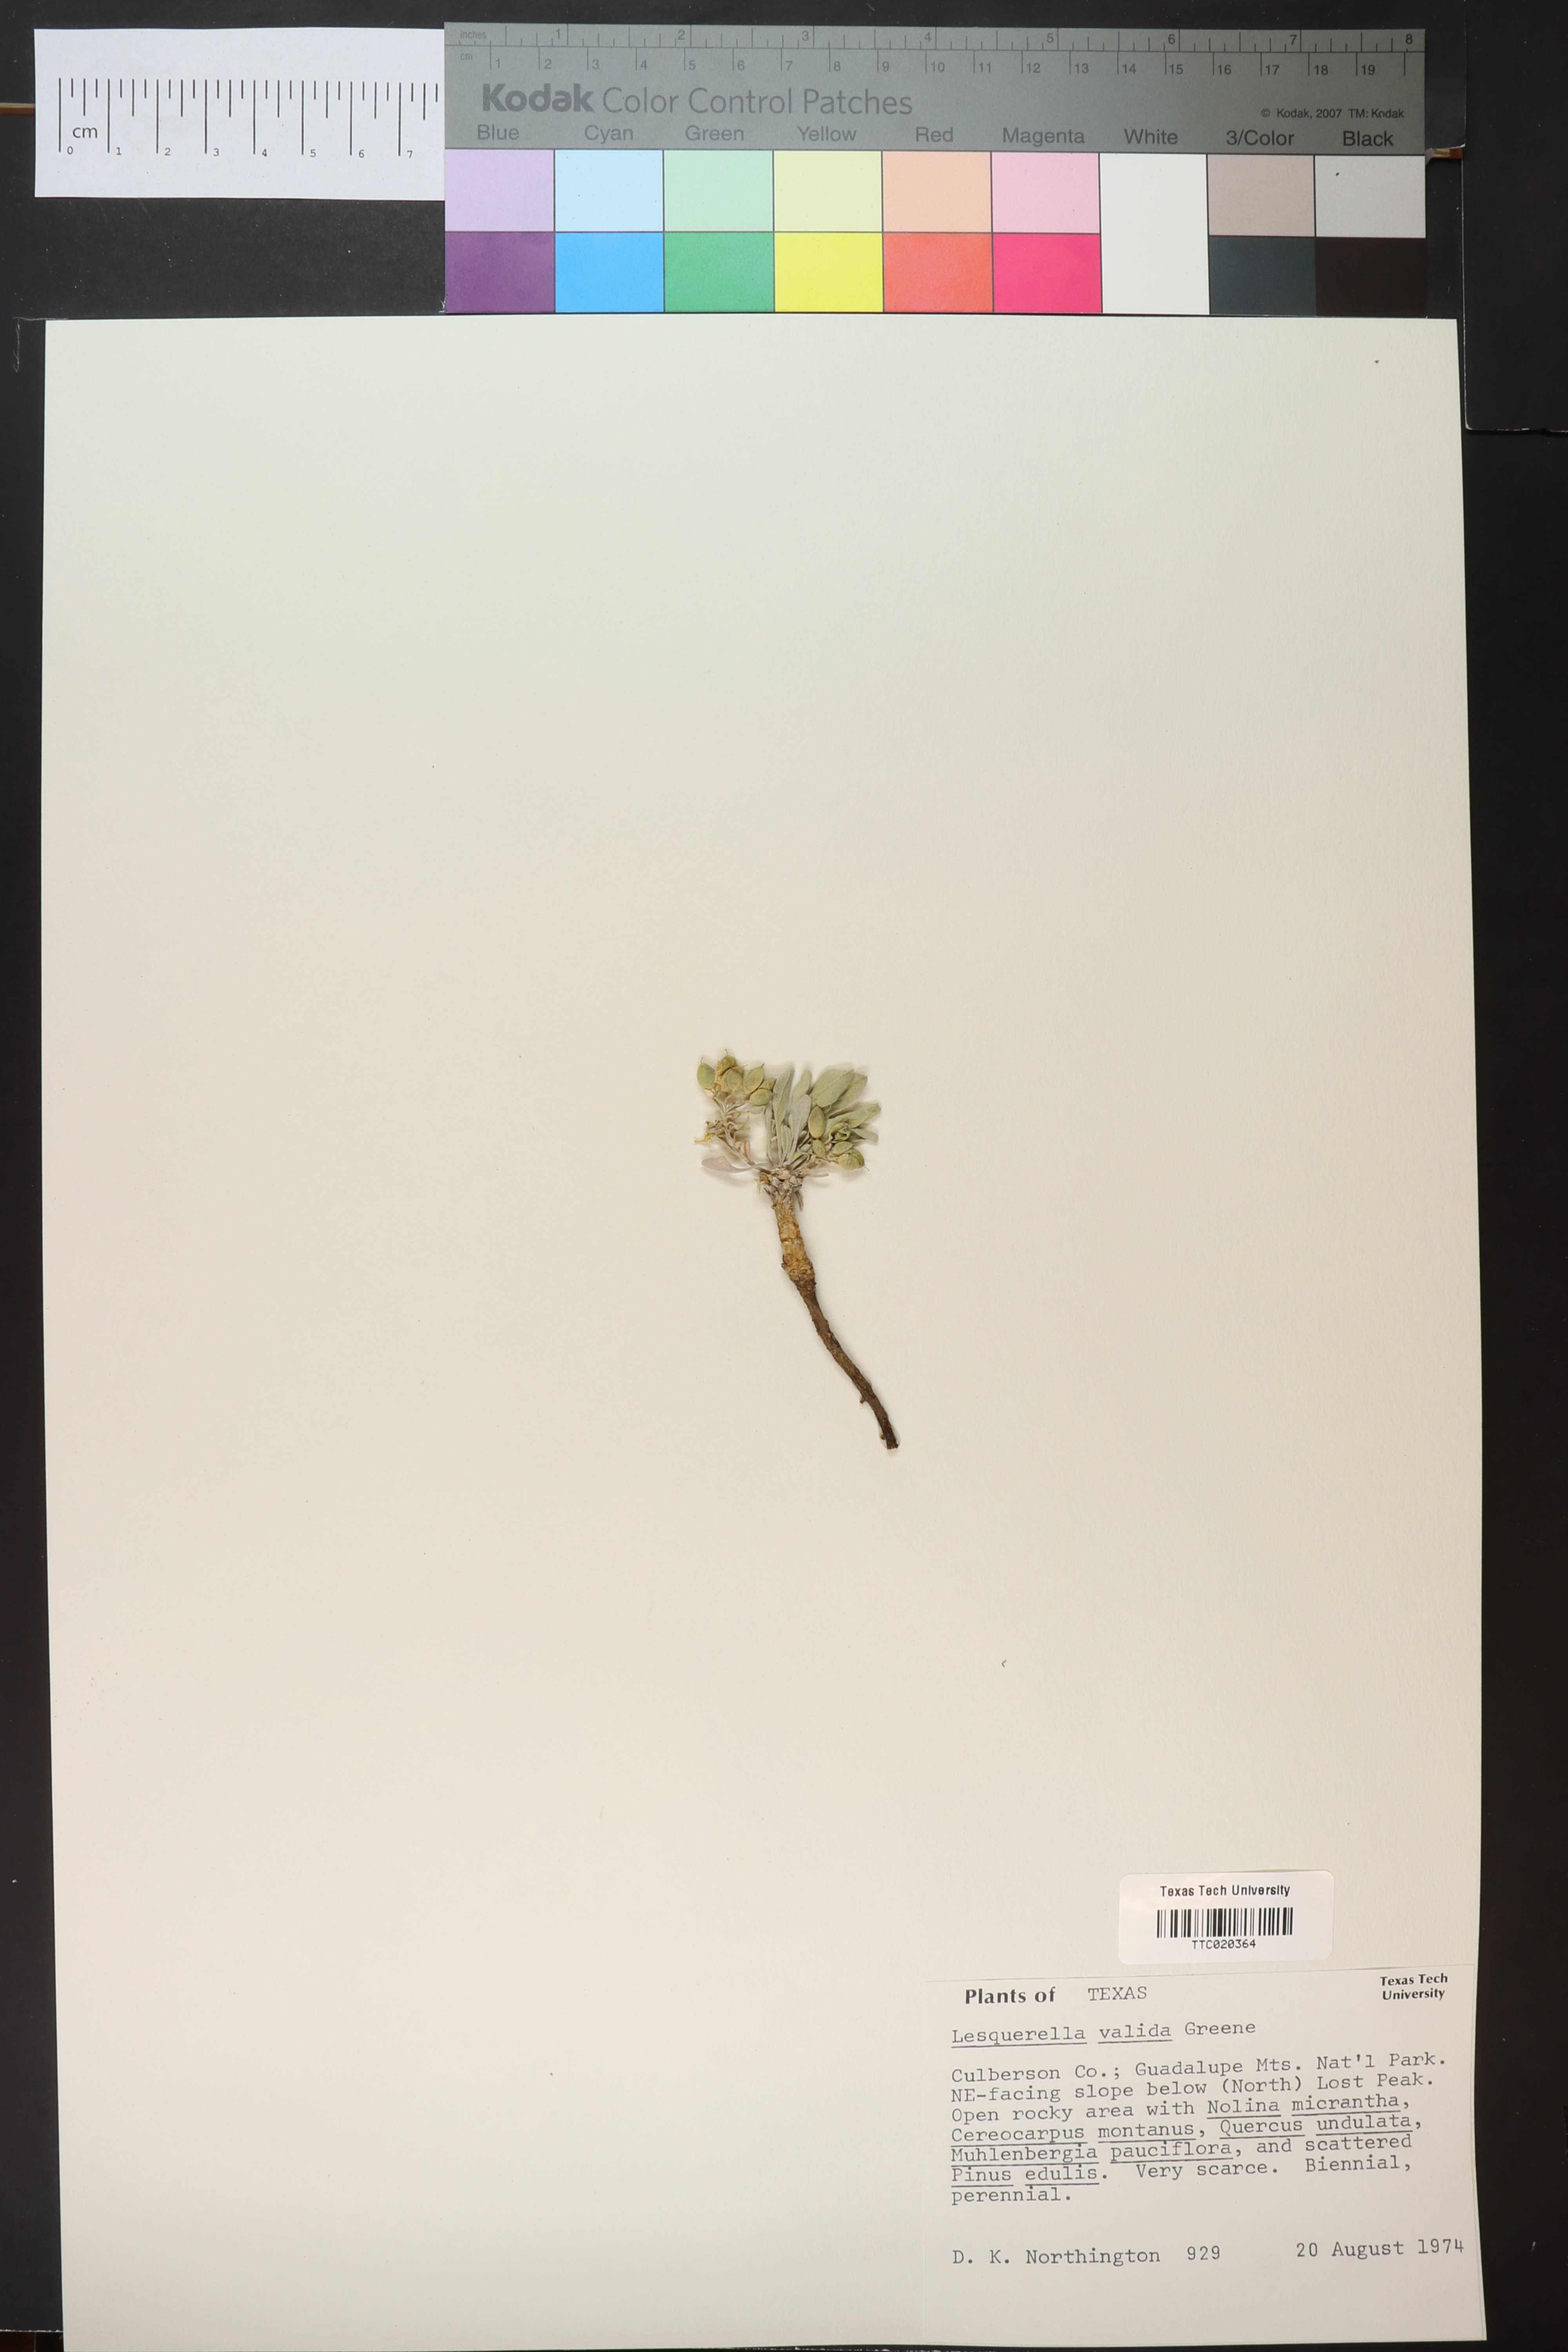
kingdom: Plantae
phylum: Tracheophyta
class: Magnoliopsida
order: Brassicales
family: Brassicaceae
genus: Physaria
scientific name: Physaria valida
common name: Strong bladderpod
